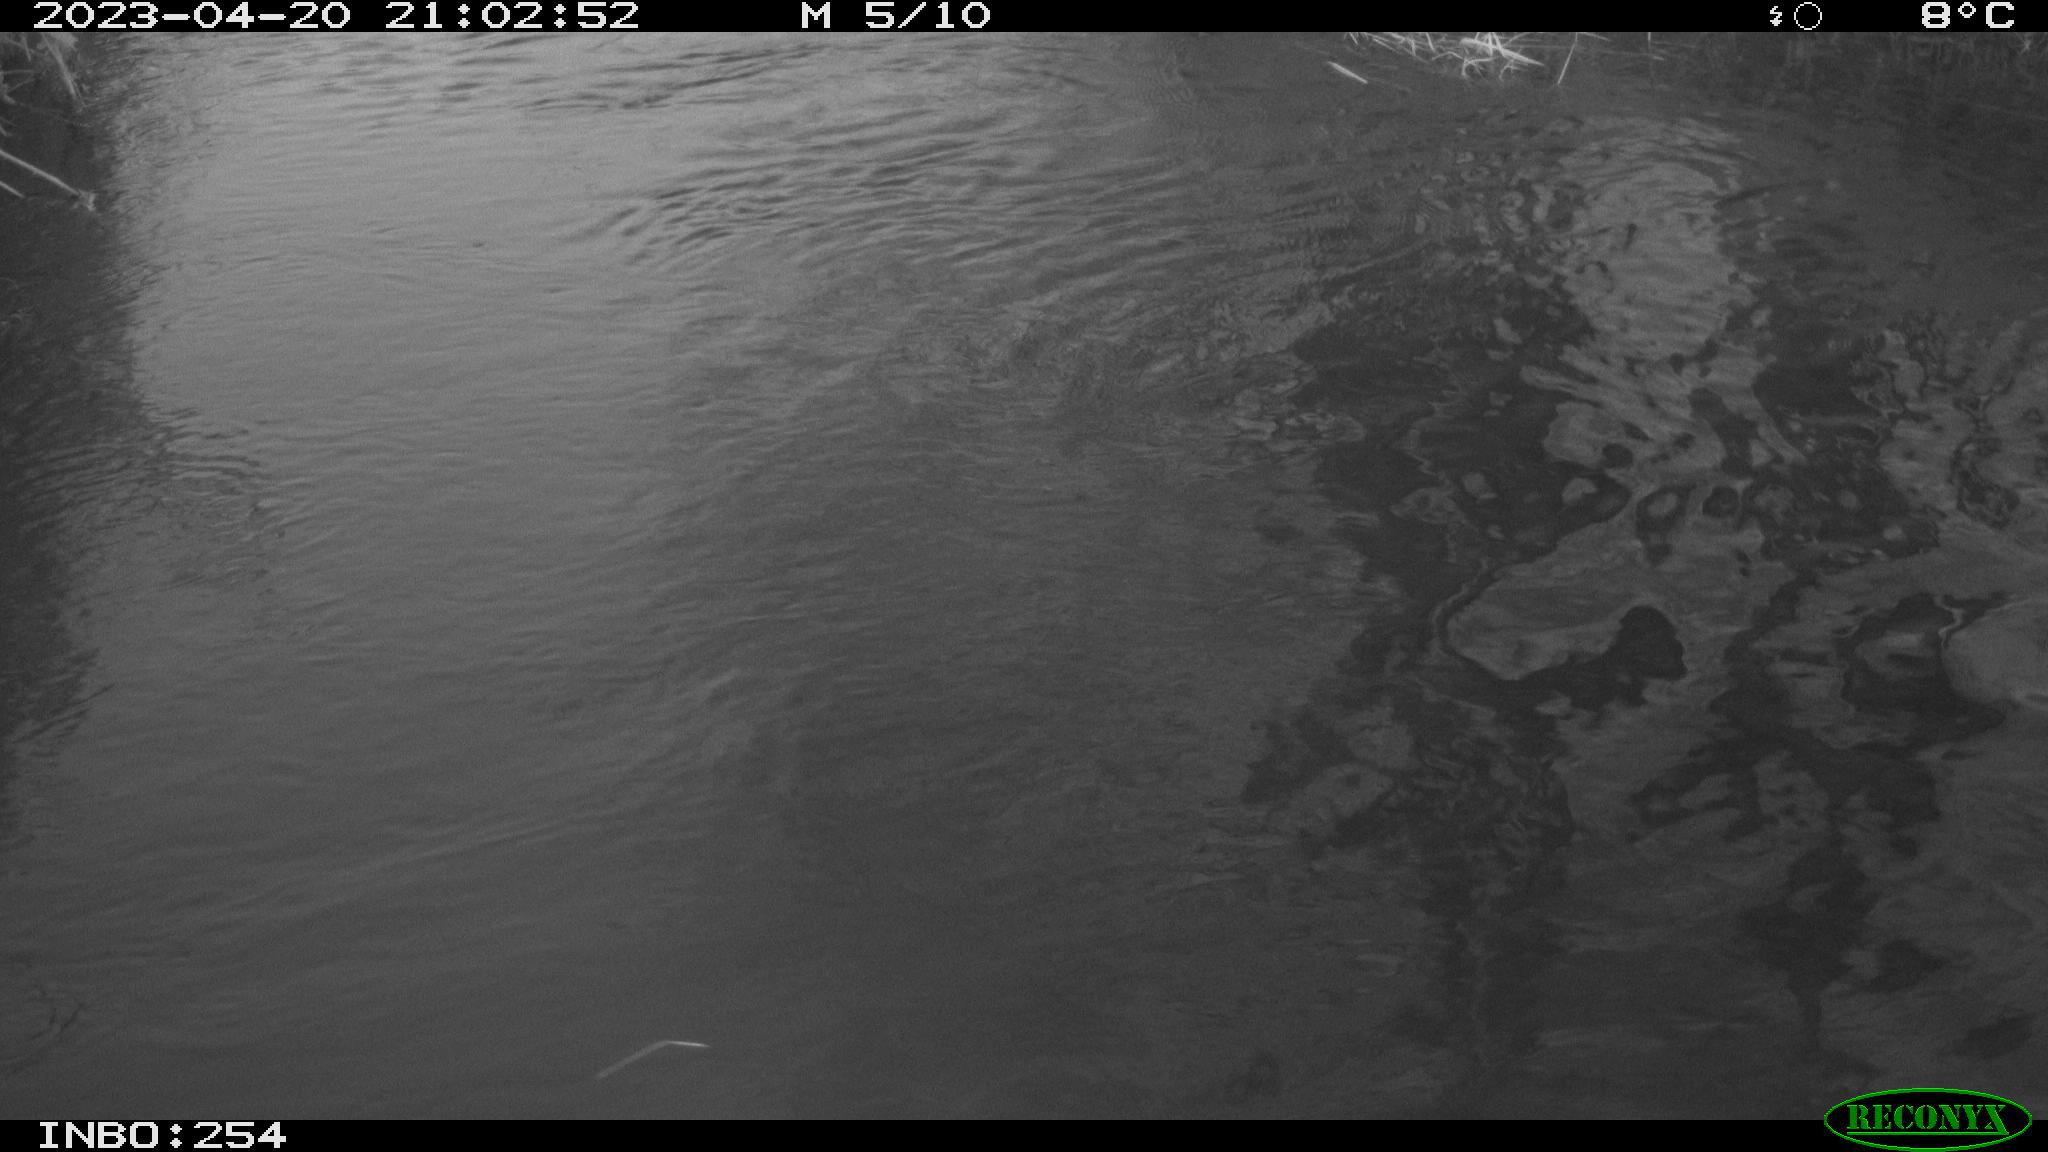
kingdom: Animalia
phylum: Chordata
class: Aves
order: Anseriformes
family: Anatidae
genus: Anas
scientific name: Anas
